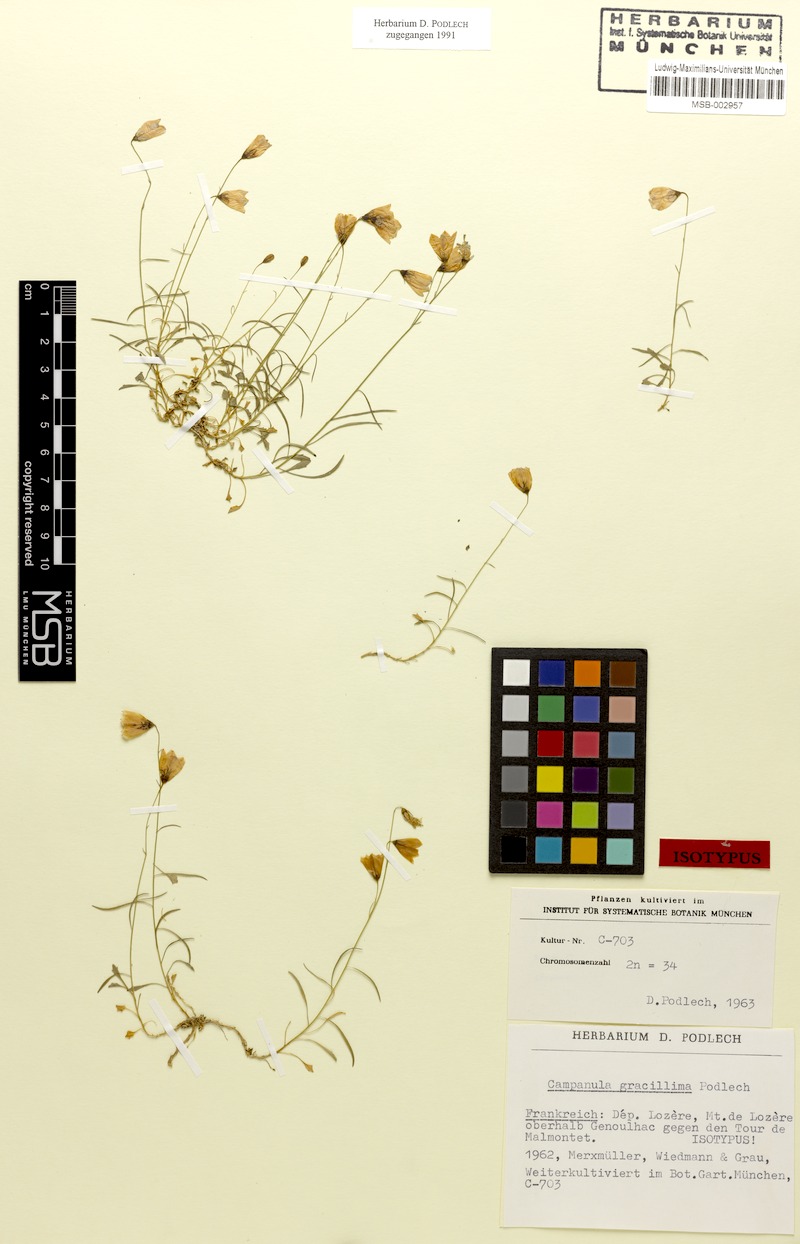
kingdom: Plantae
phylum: Tracheophyta
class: Magnoliopsida
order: Asterales
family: Campanulaceae
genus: Campanula
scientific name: Campanula gracillima
